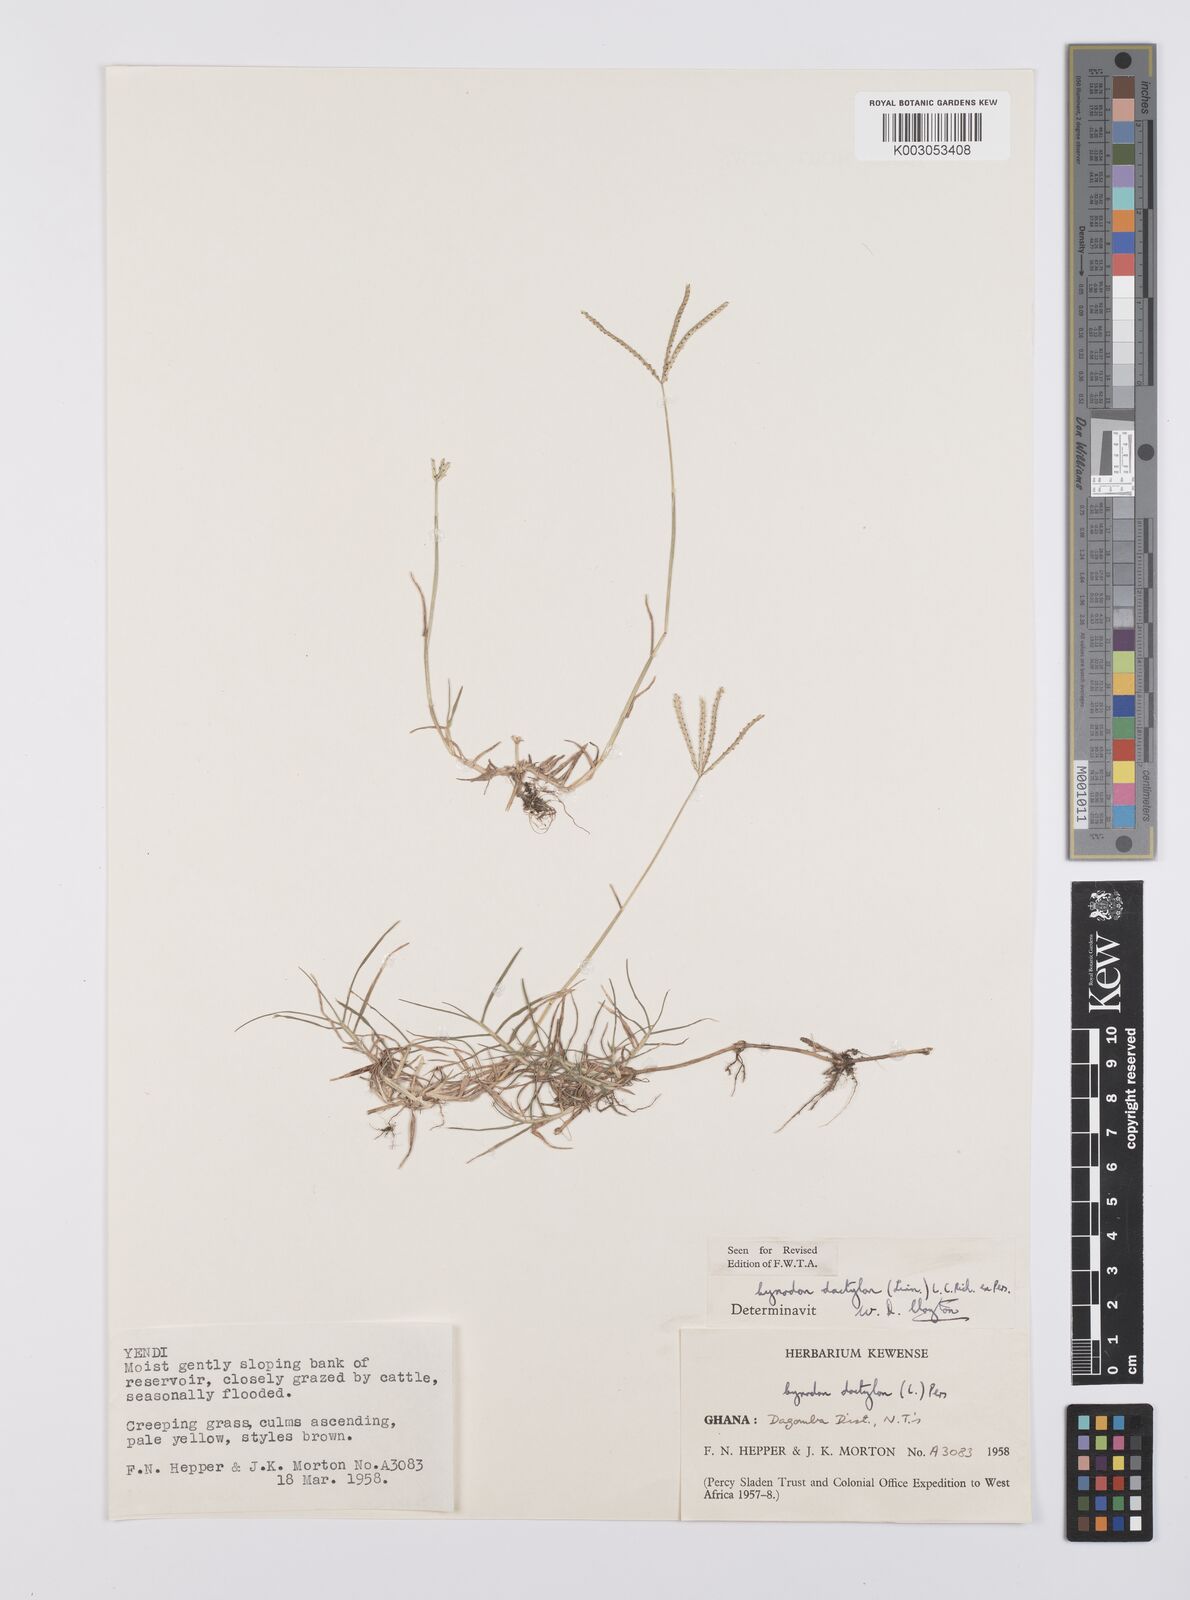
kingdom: Plantae
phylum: Tracheophyta
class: Liliopsida
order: Poales
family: Poaceae
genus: Cynodon
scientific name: Cynodon dactylon
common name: Bermuda grass
